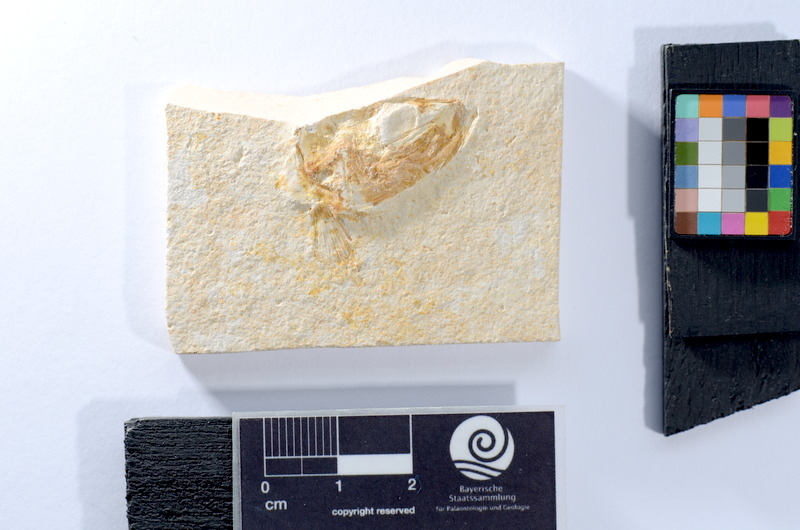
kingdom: Animalia
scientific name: Animalia
